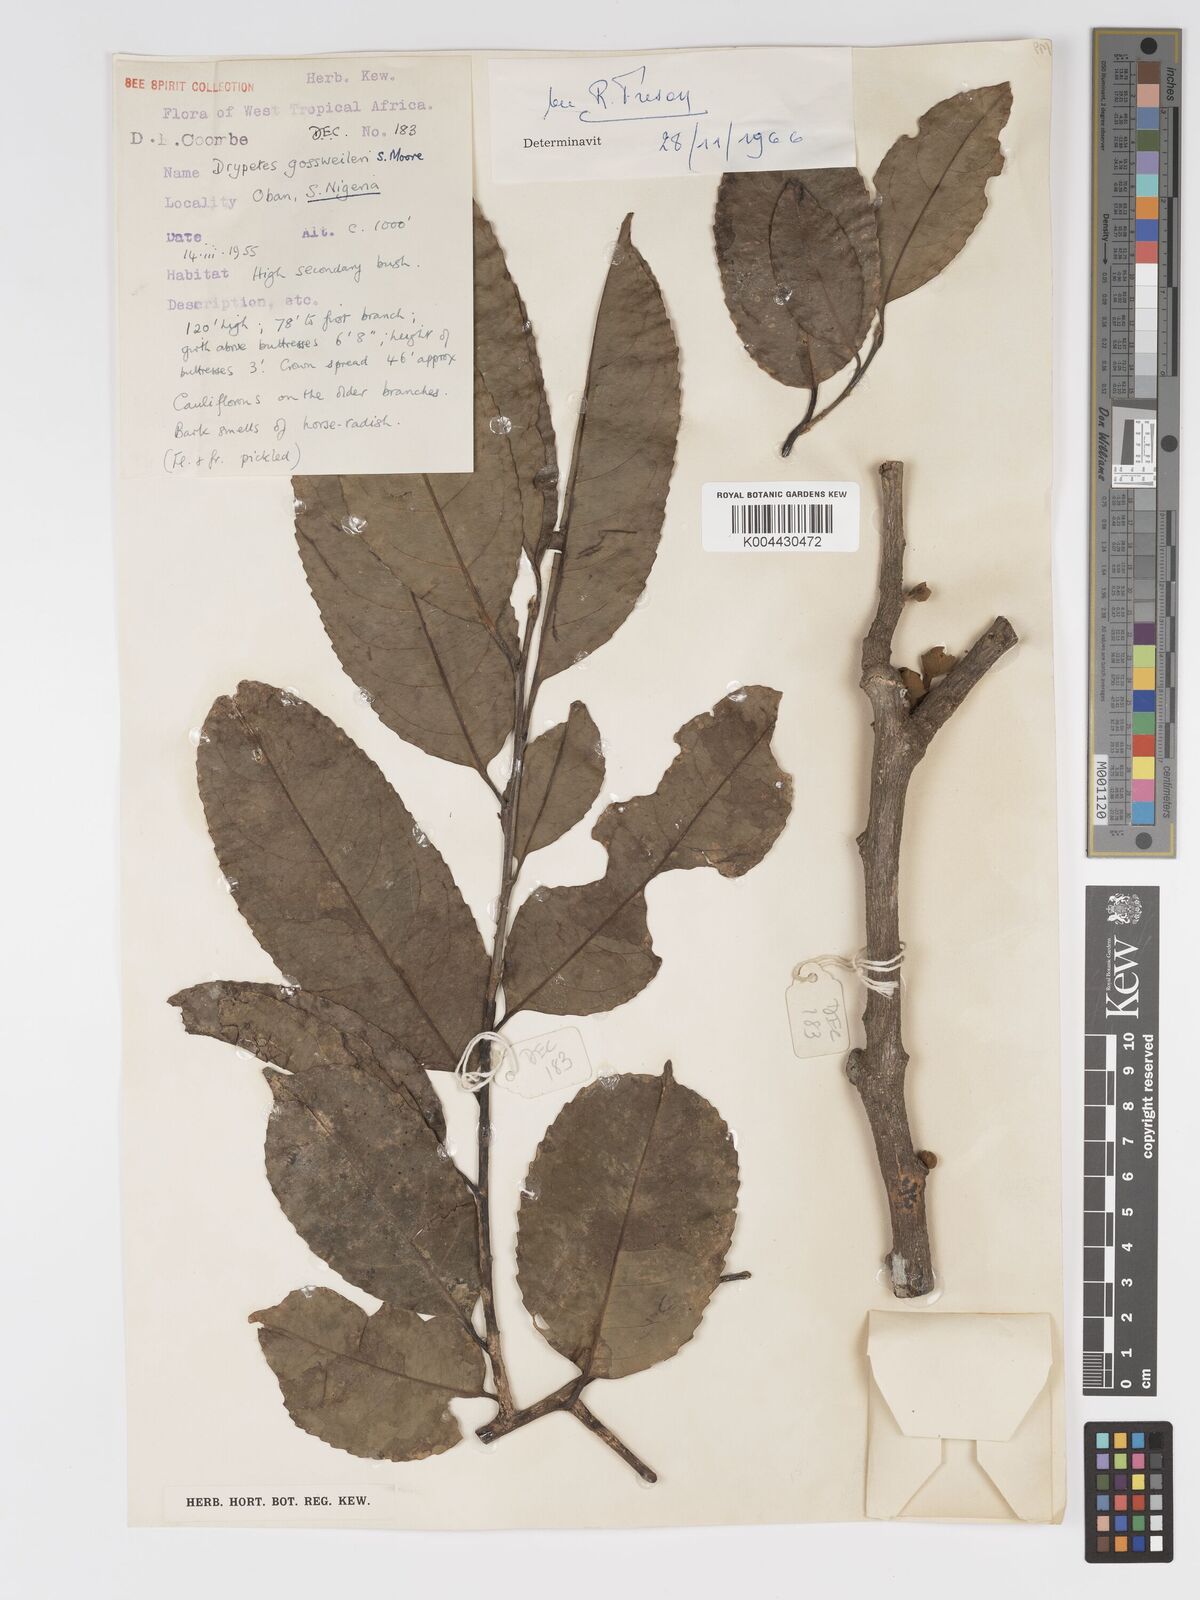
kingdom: Plantae
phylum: Tracheophyta
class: Magnoliopsida
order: Malpighiales
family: Putranjivaceae
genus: Drypetes
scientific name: Drypetes gossweileri
